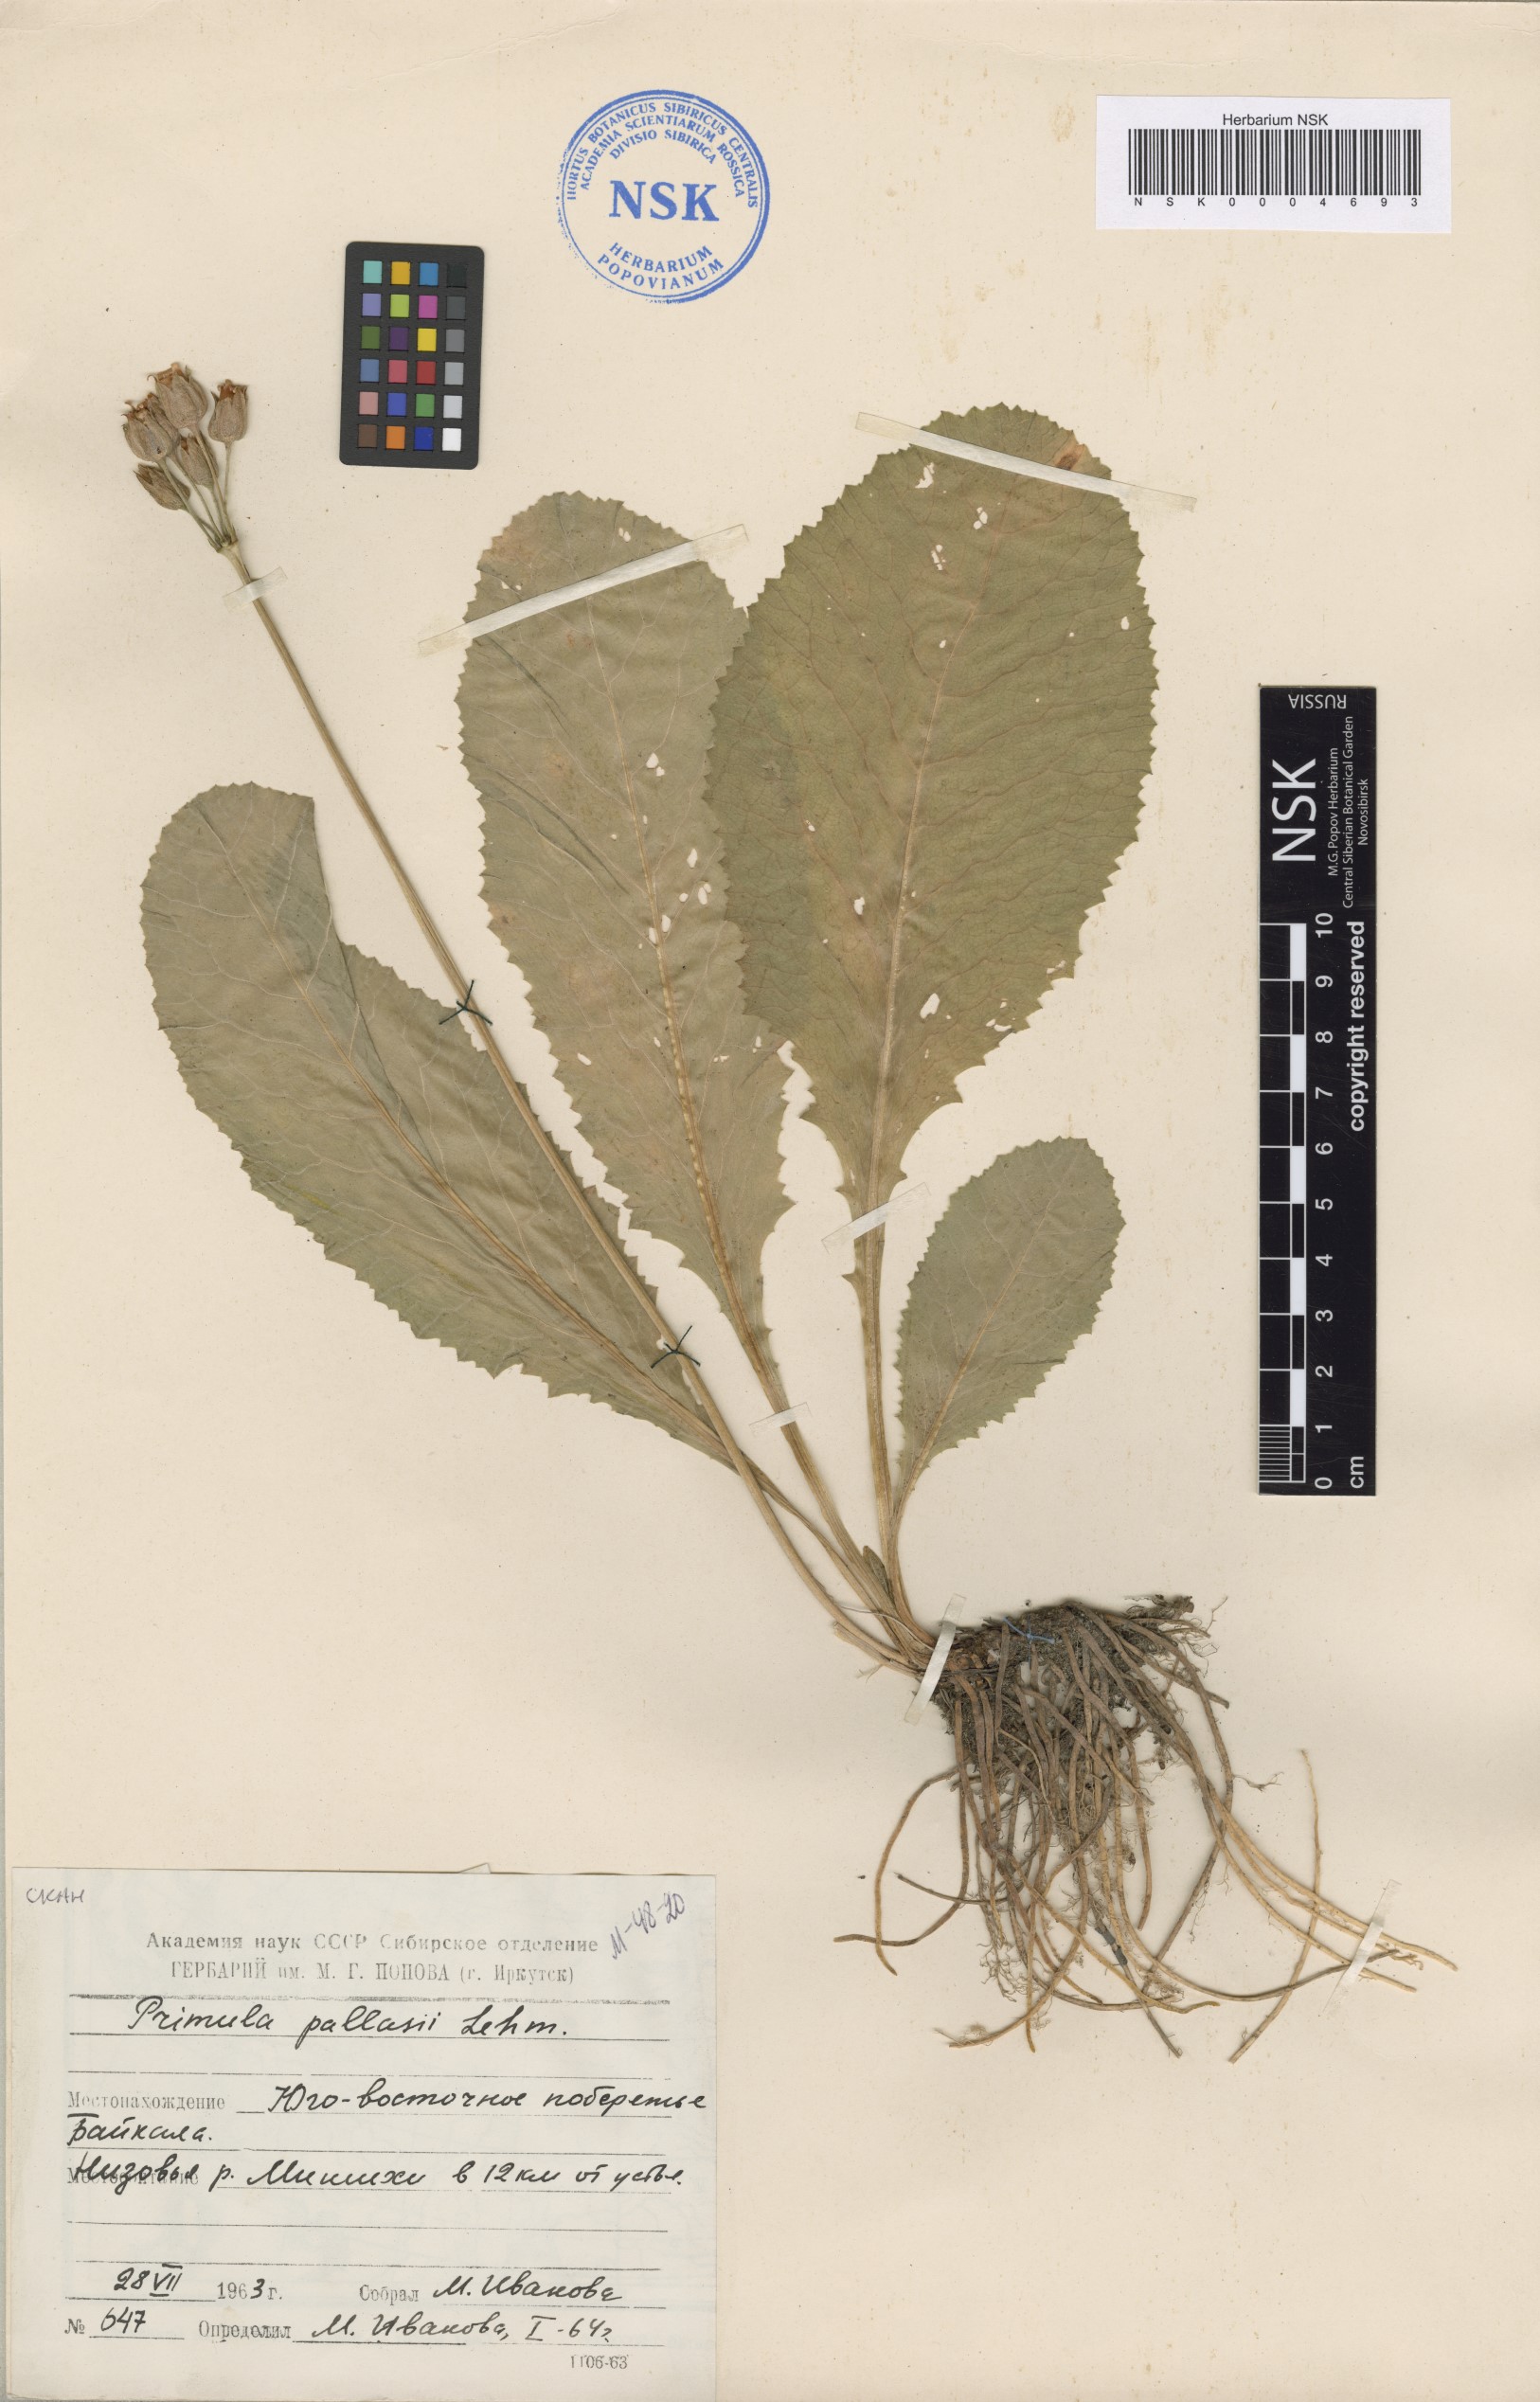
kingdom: Plantae
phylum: Tracheophyta
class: Magnoliopsida
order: Ericales
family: Primulaceae
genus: Primula
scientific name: Primula elatior
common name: Oxlip
